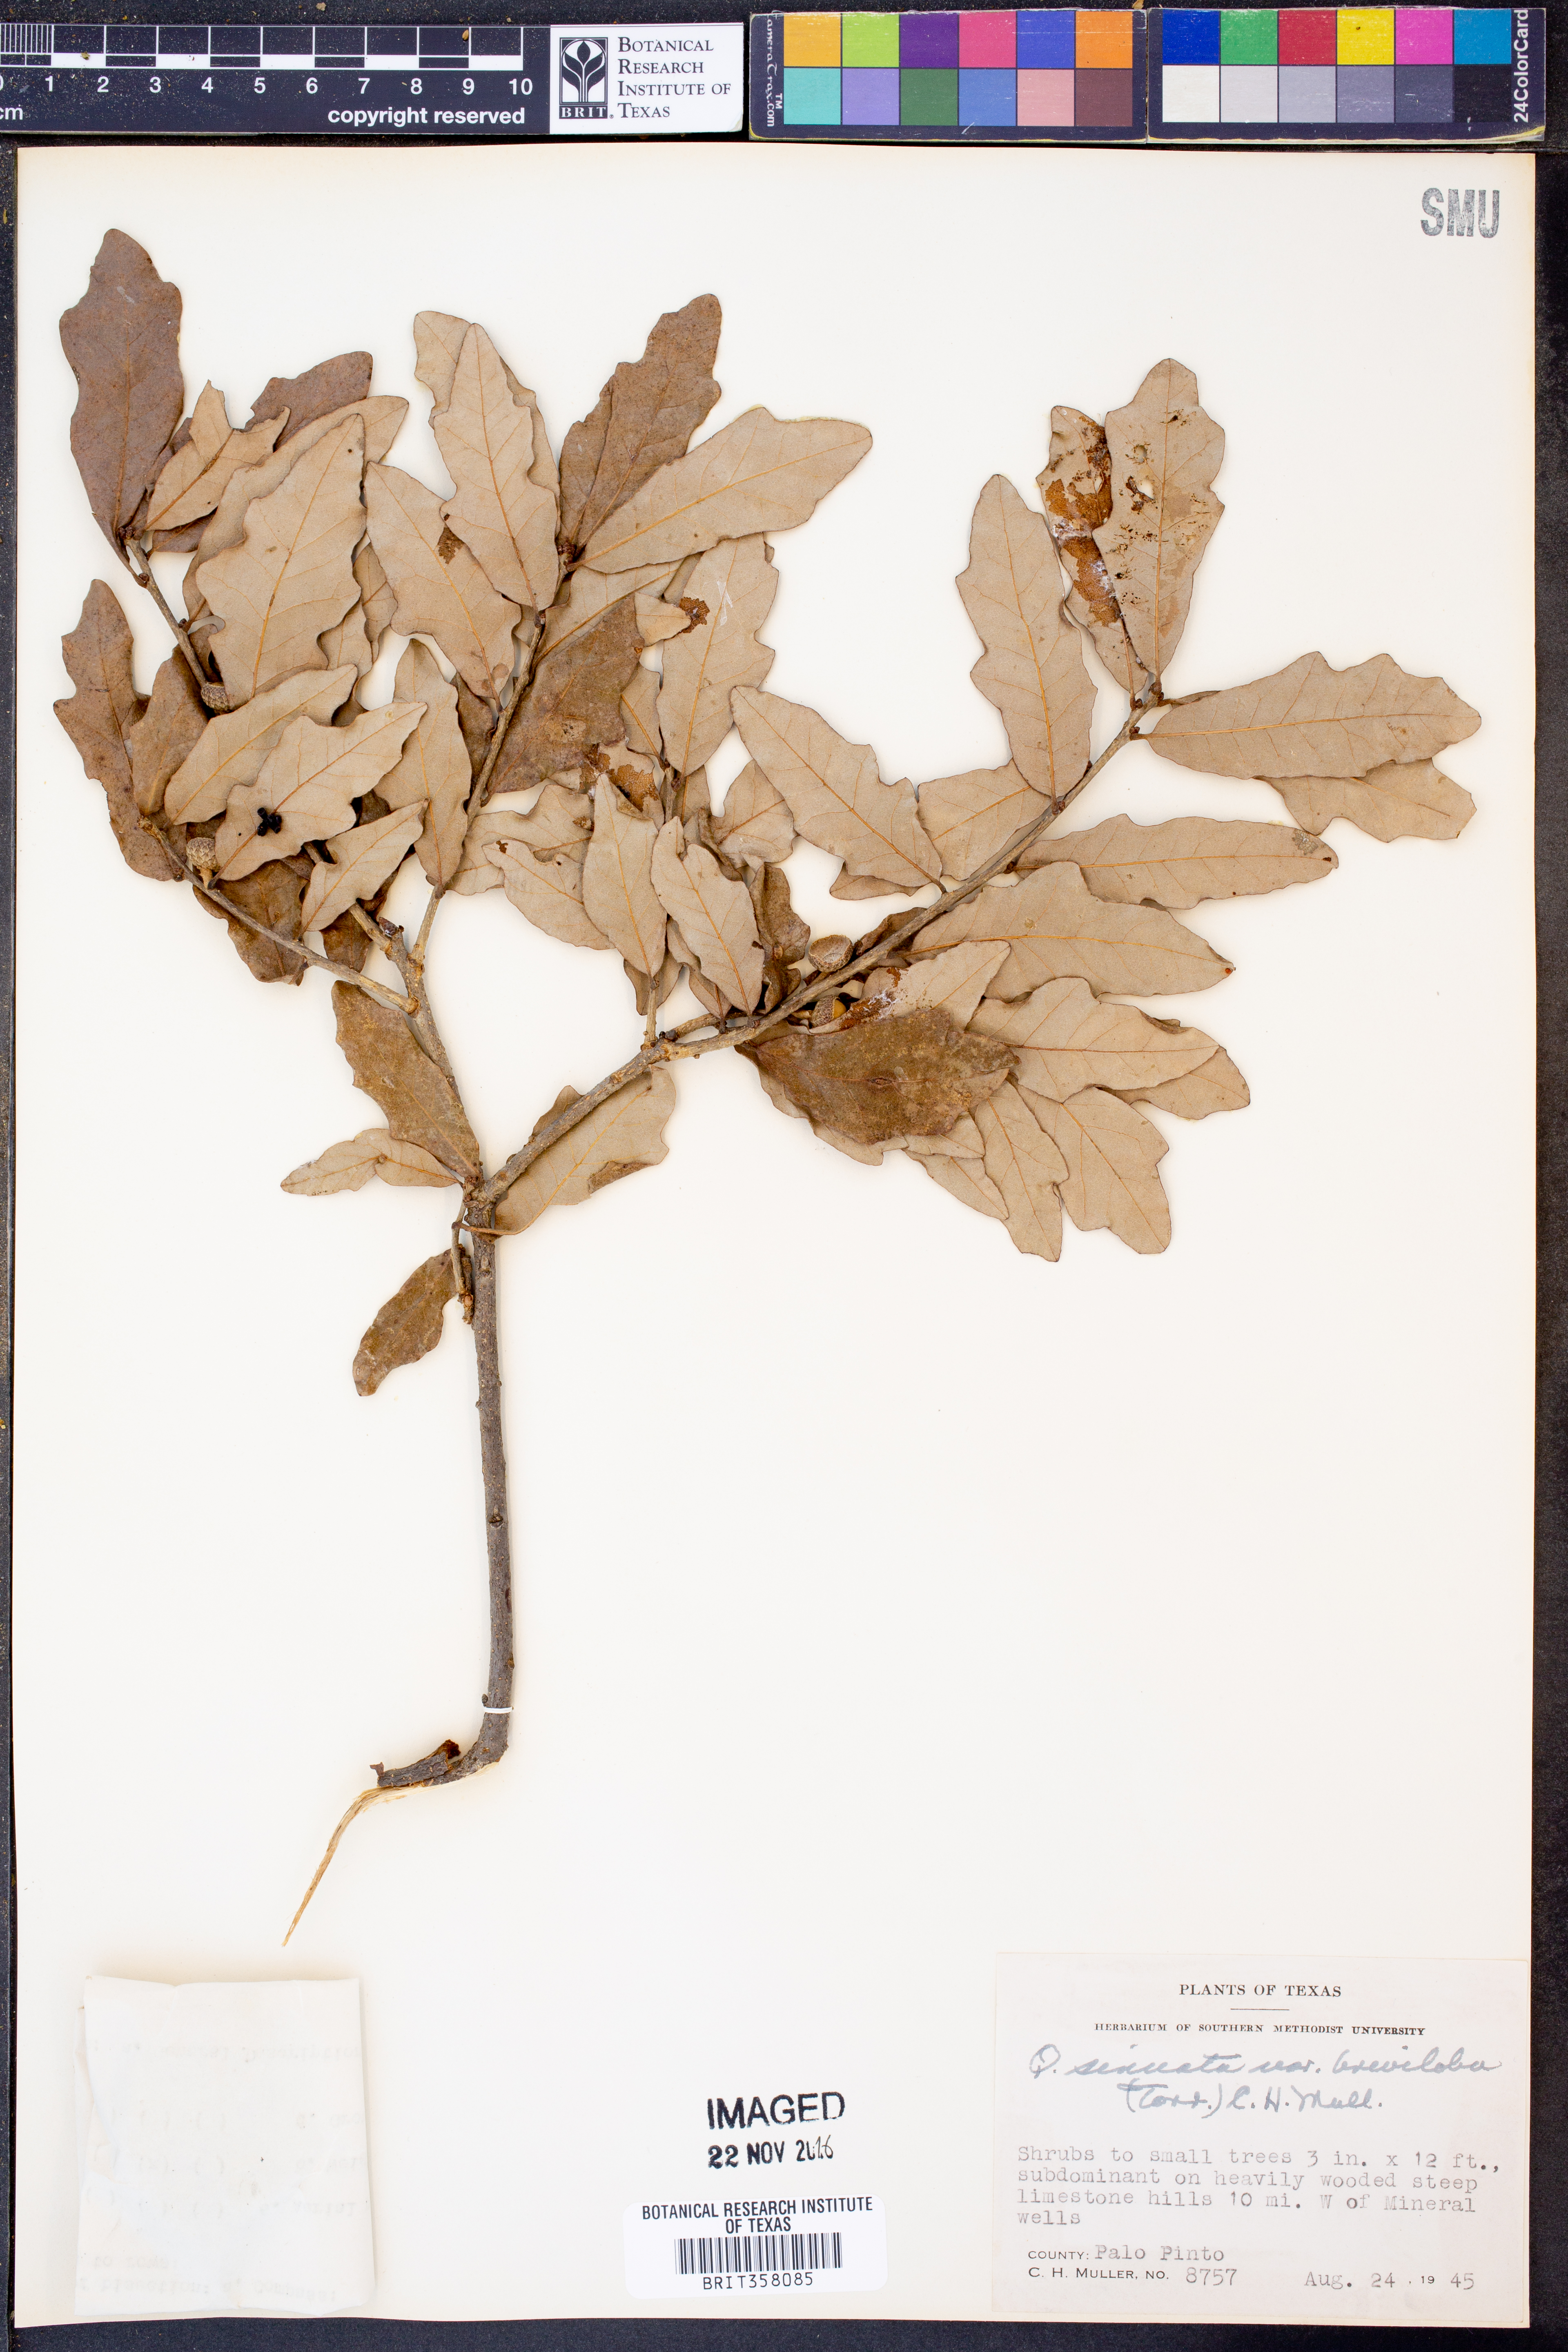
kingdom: Plantae
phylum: Tracheophyta
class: Magnoliopsida
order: Fagales
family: Fagaceae
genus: Quercus
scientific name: Quercus sinuata
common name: Durand oak
